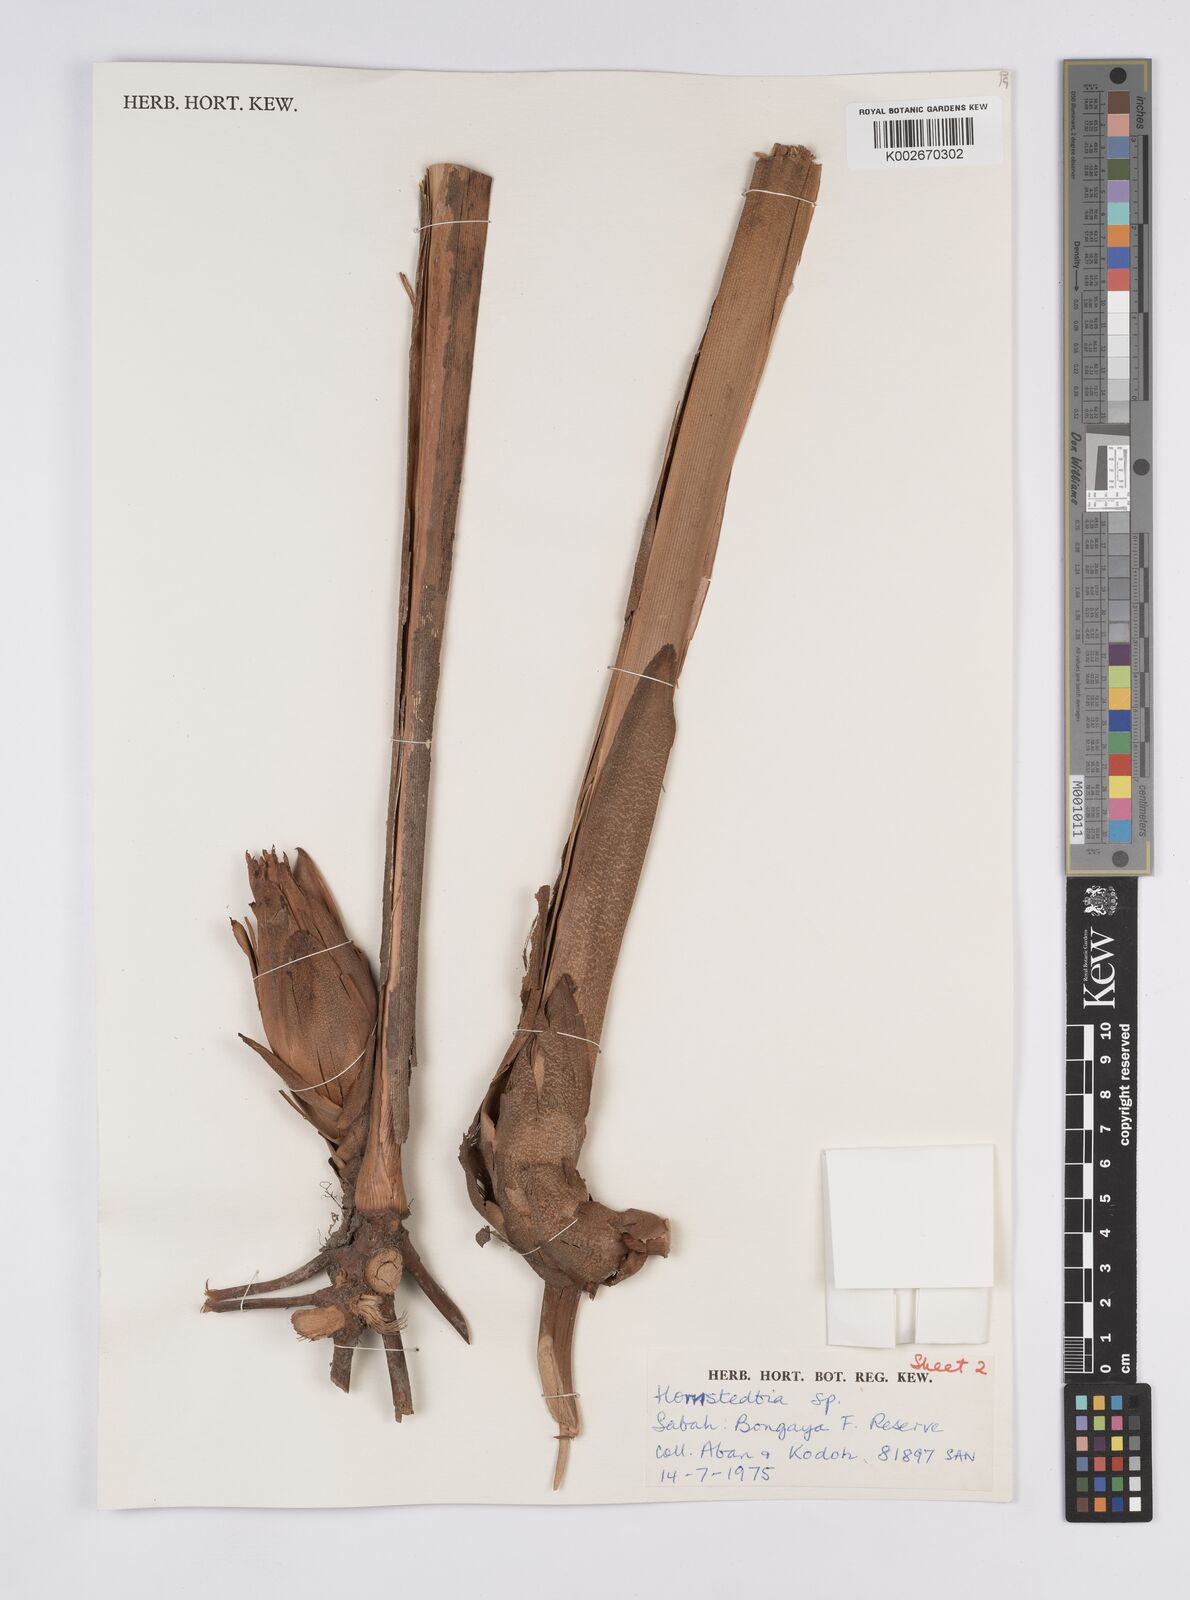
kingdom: Plantae
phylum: Tracheophyta
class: Liliopsida
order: Zingiberales
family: Zingiberaceae
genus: Hornstedtia
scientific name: Hornstedtia
